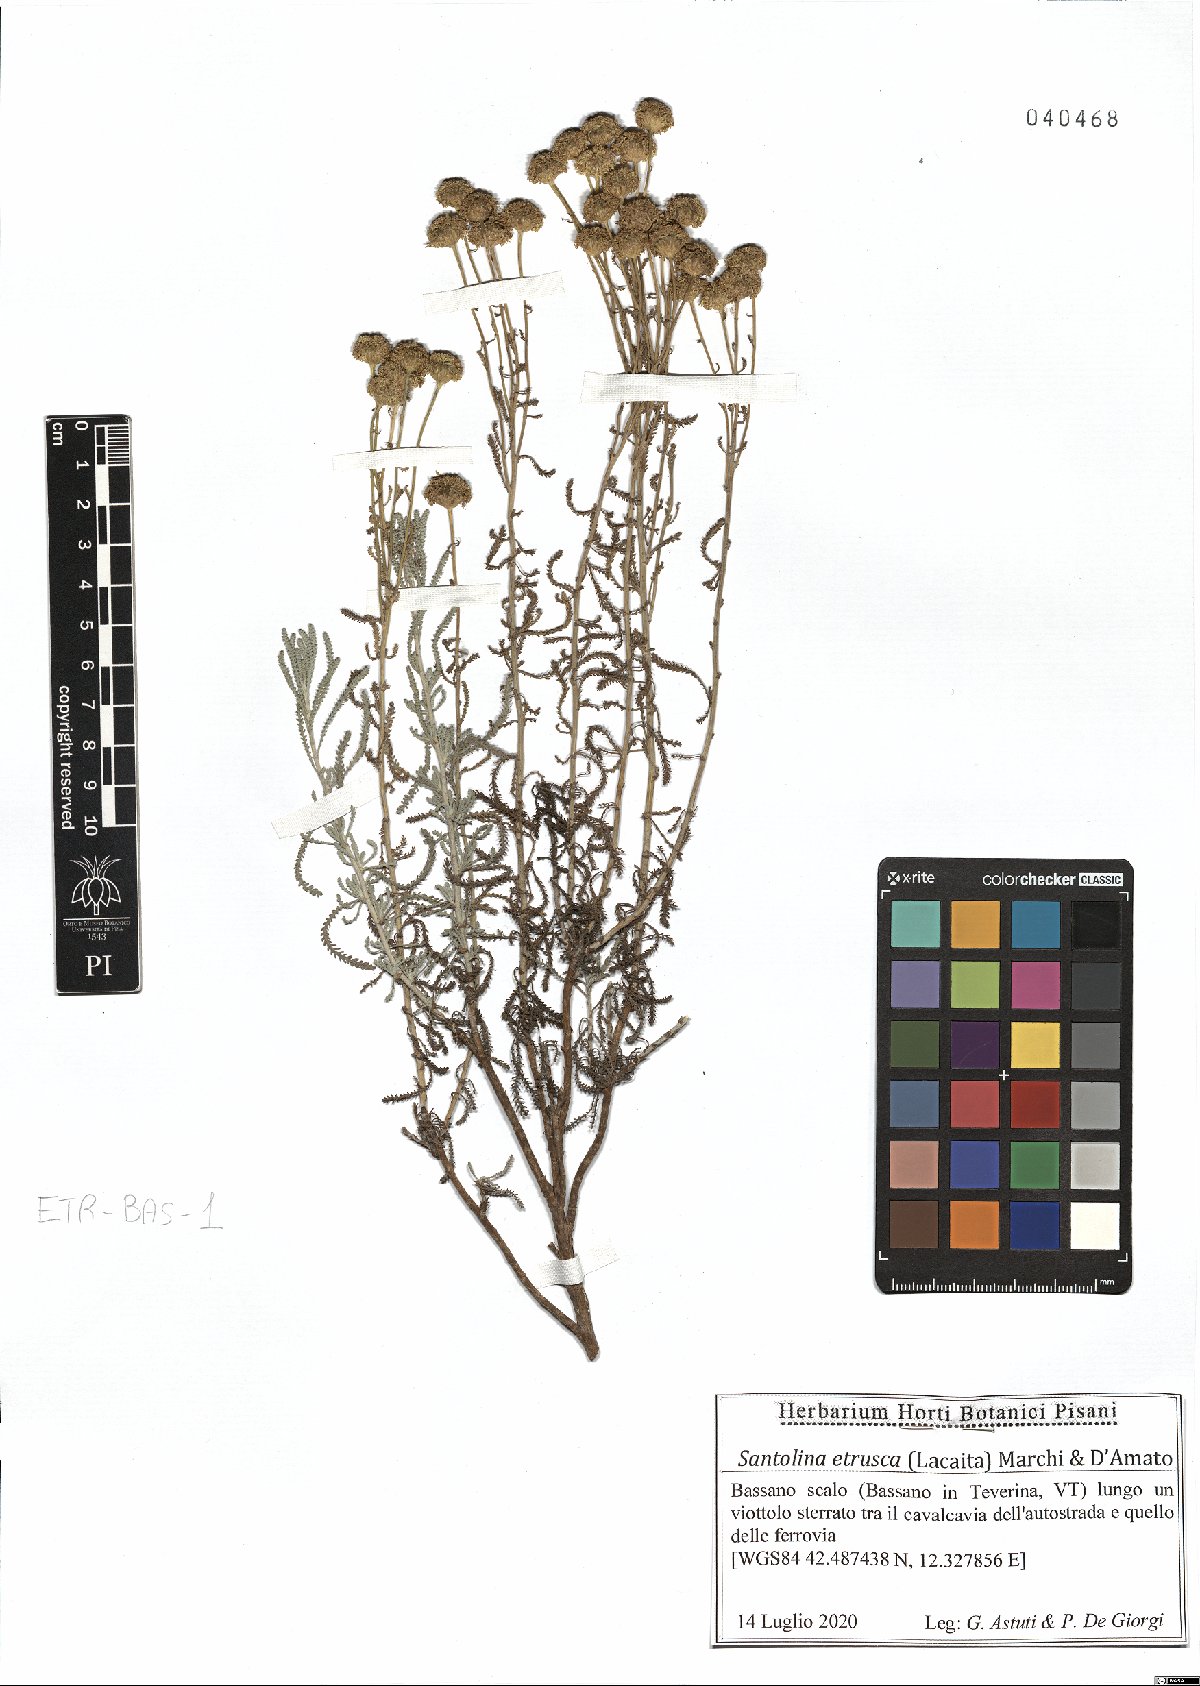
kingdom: Plantae
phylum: Tracheophyta
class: Magnoliopsida
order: Asterales
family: Asteraceae
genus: Santolina
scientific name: Santolina etrusca
